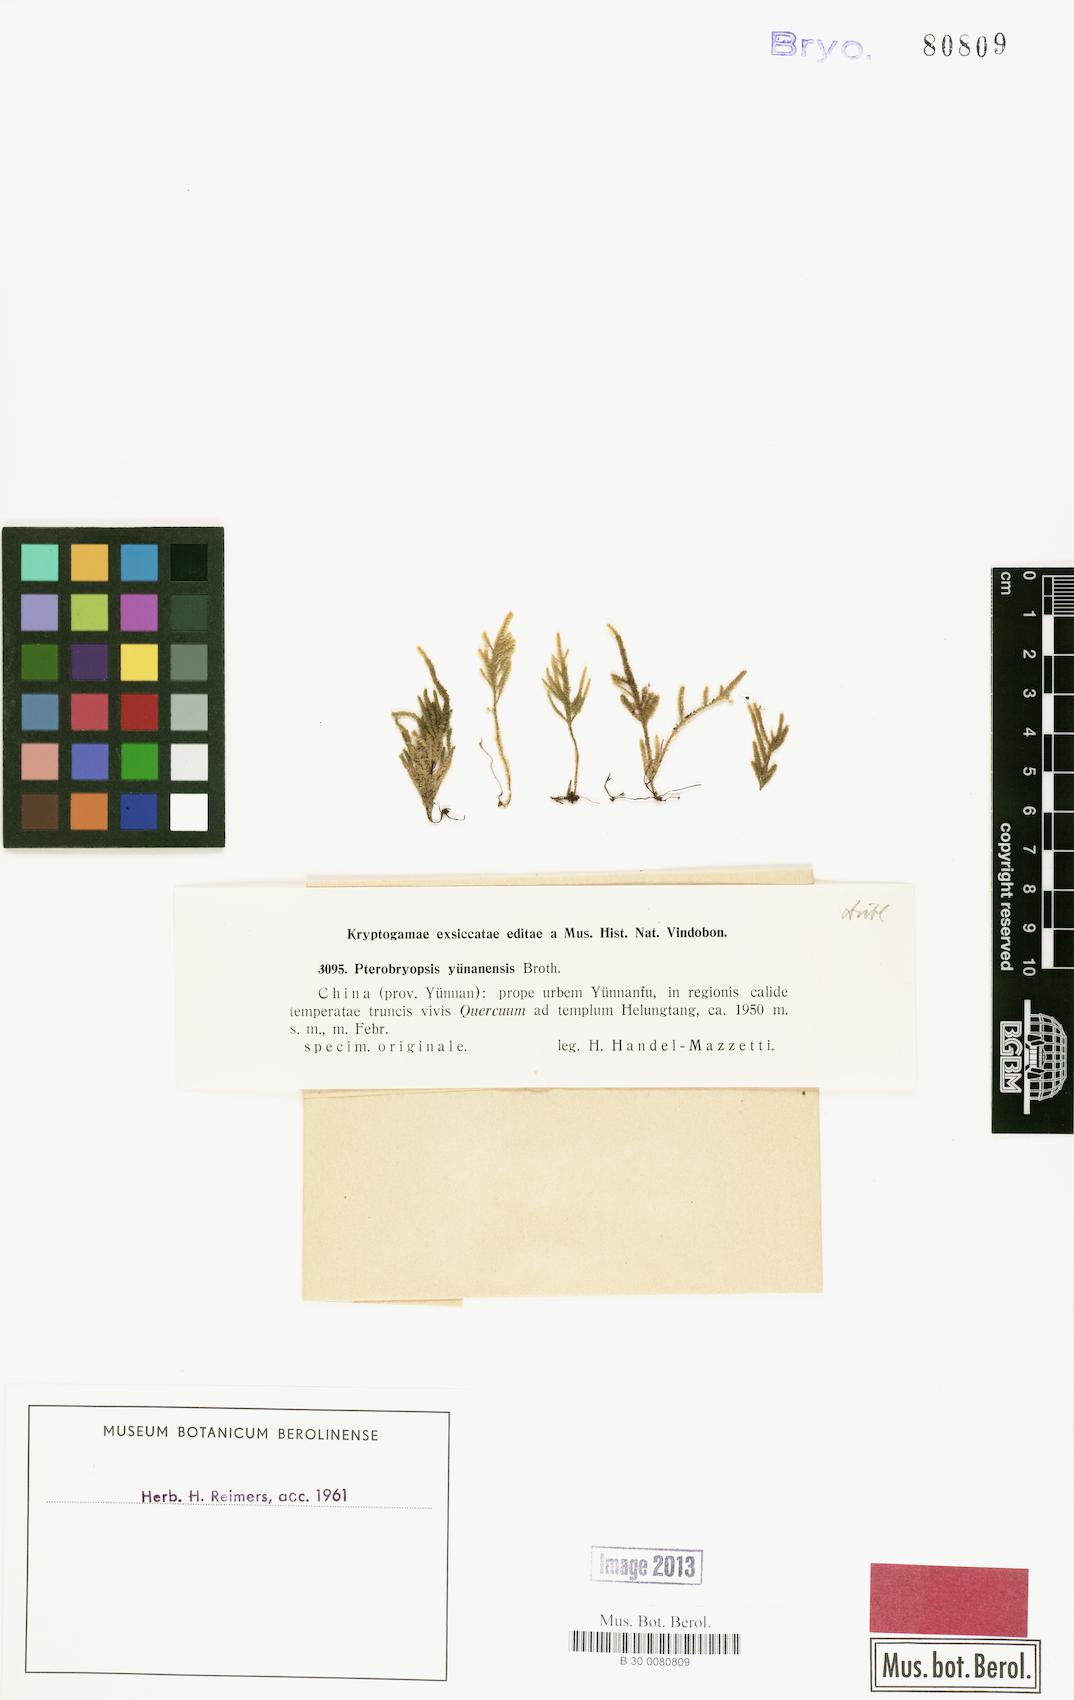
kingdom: Plantae
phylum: Bryophyta
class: Bryopsida
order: Hypnales
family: Pterobryaceae
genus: Pterobryopsis
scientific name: Pterobryopsis
